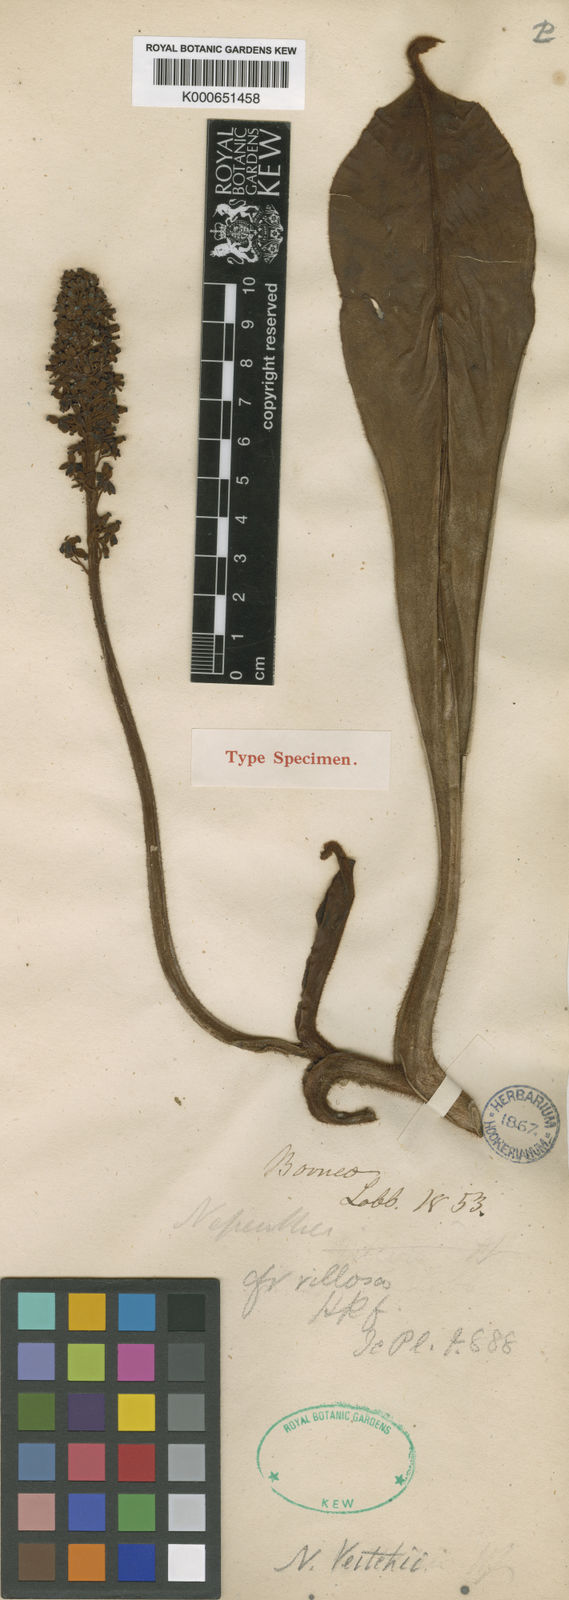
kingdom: Plantae
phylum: Tracheophyta
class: Magnoliopsida
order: Caryophyllales
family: Nepenthaceae
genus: Nepenthes
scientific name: Nepenthes veitchii
